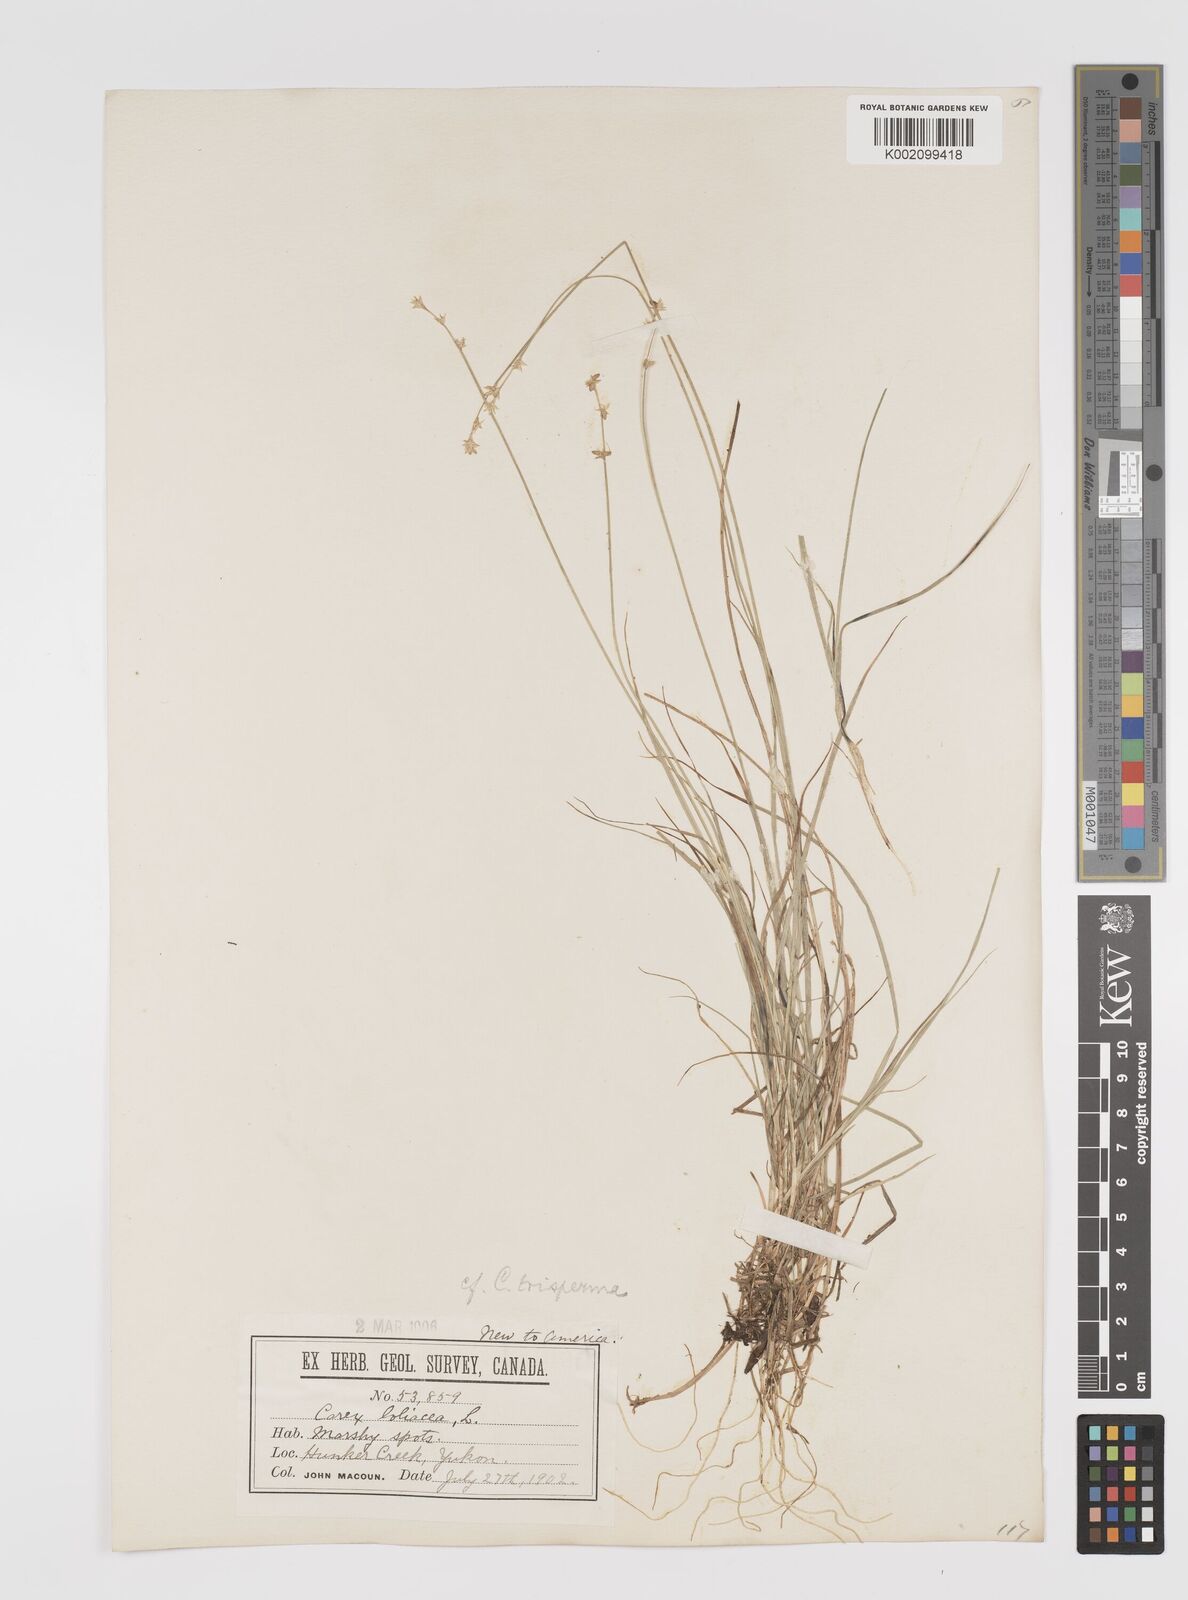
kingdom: Plantae
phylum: Tracheophyta
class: Liliopsida
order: Poales
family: Cyperaceae
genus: Carex
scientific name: Carex trisperma
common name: Three-seeded sedge
